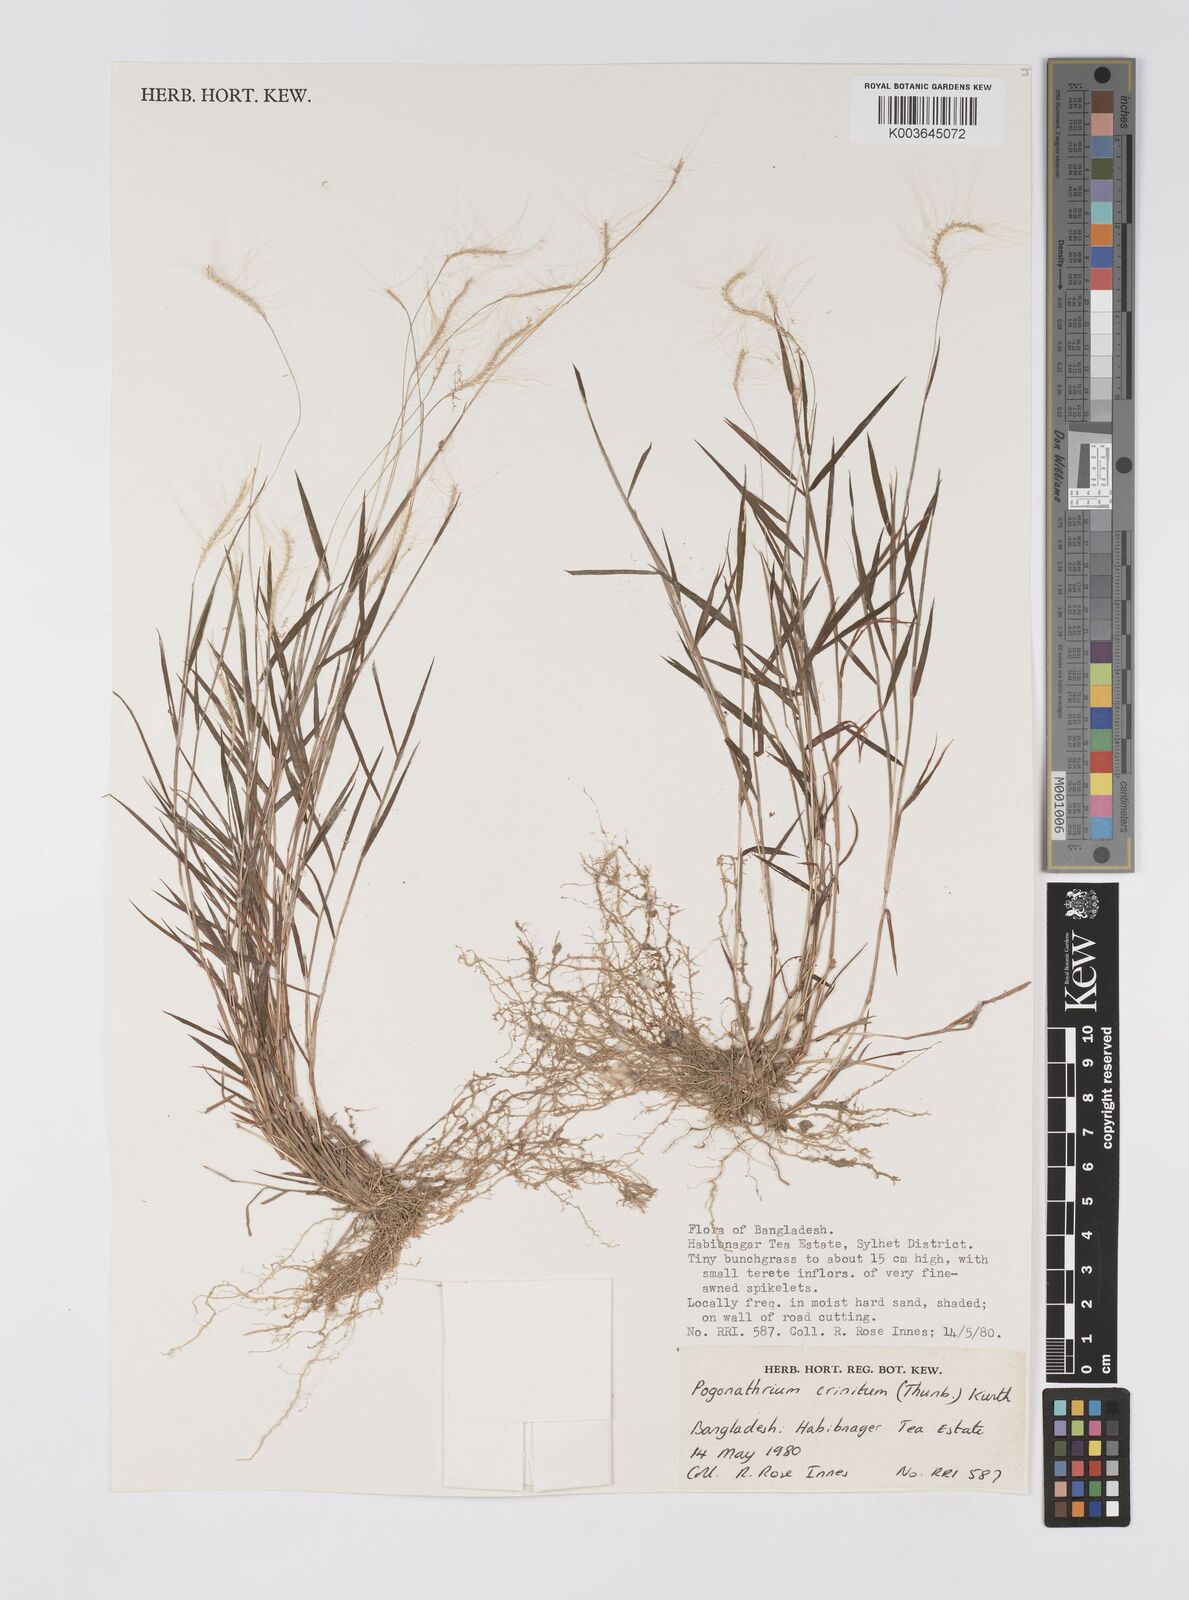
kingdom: Plantae
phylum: Tracheophyta
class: Liliopsida
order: Poales
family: Poaceae
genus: Pogonatherum
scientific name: Pogonatherum crinitum
